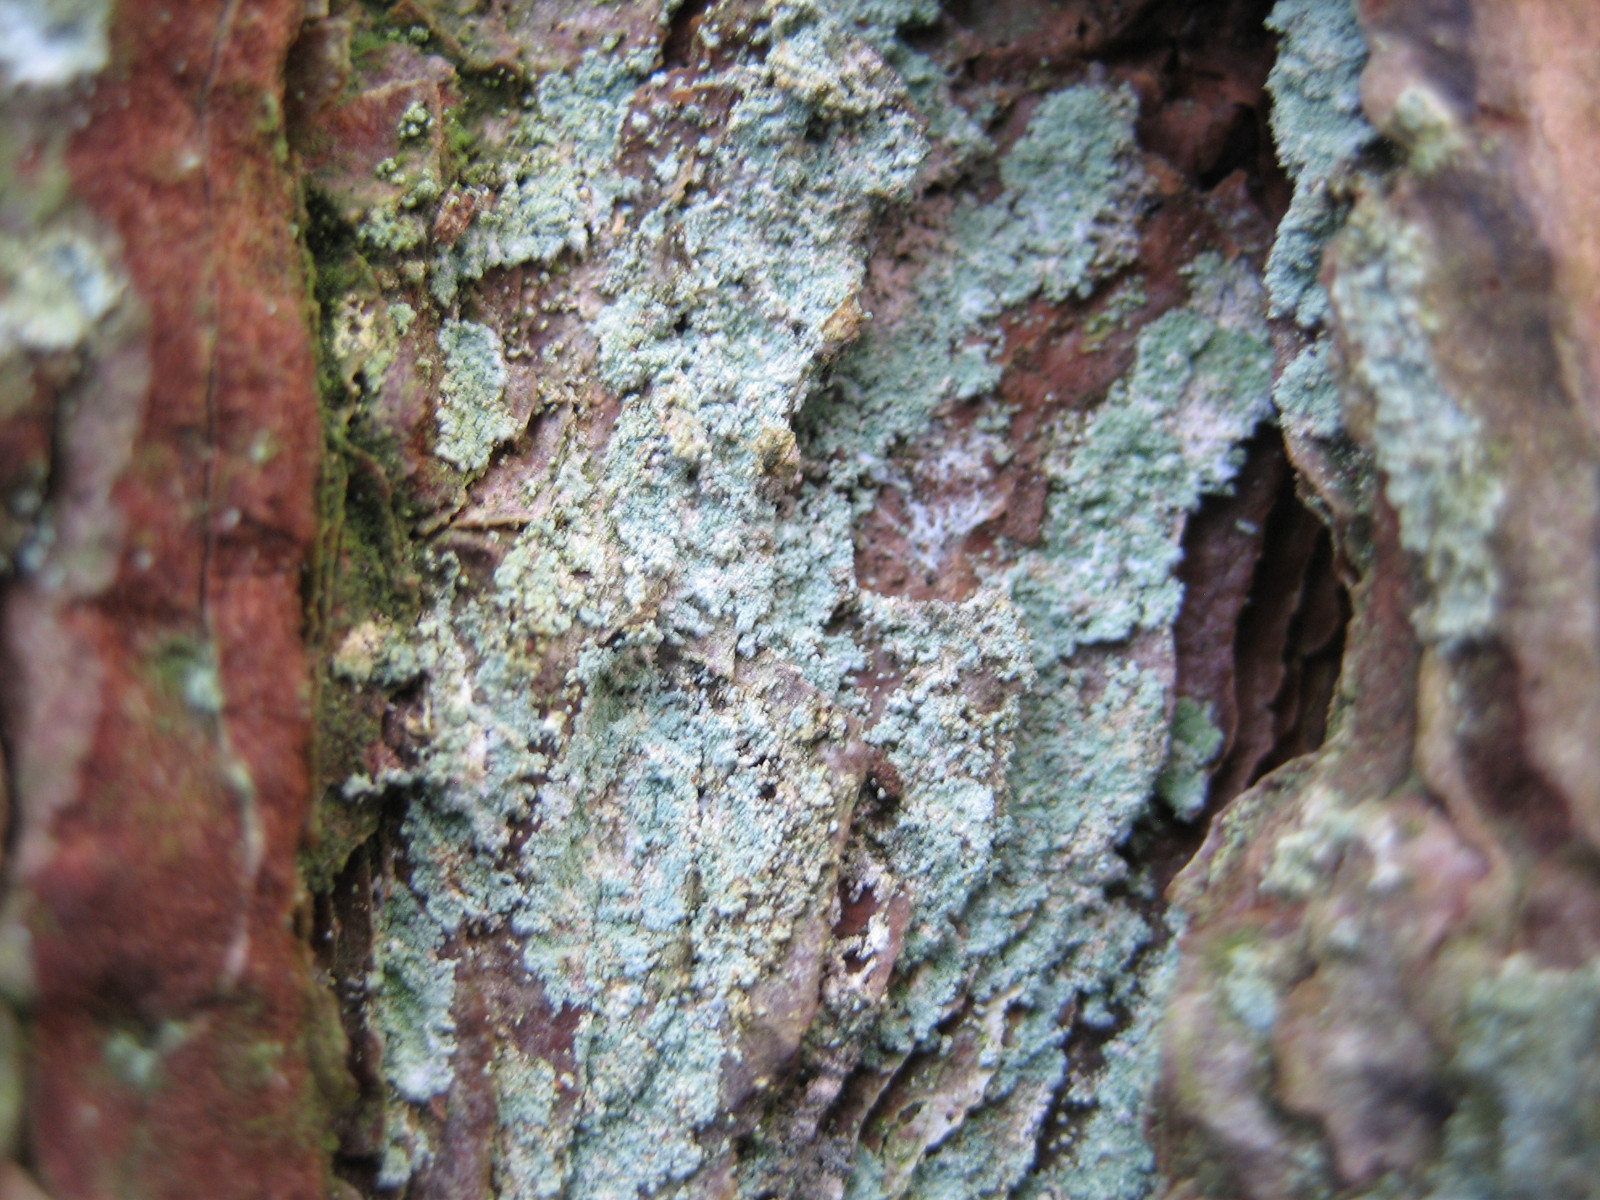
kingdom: Fungi
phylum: Ascomycota
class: Lecanoromycetes
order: Lecanorales
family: Stereocaulaceae
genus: Lepraria
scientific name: Lepraria incana
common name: almindelig støvlav
